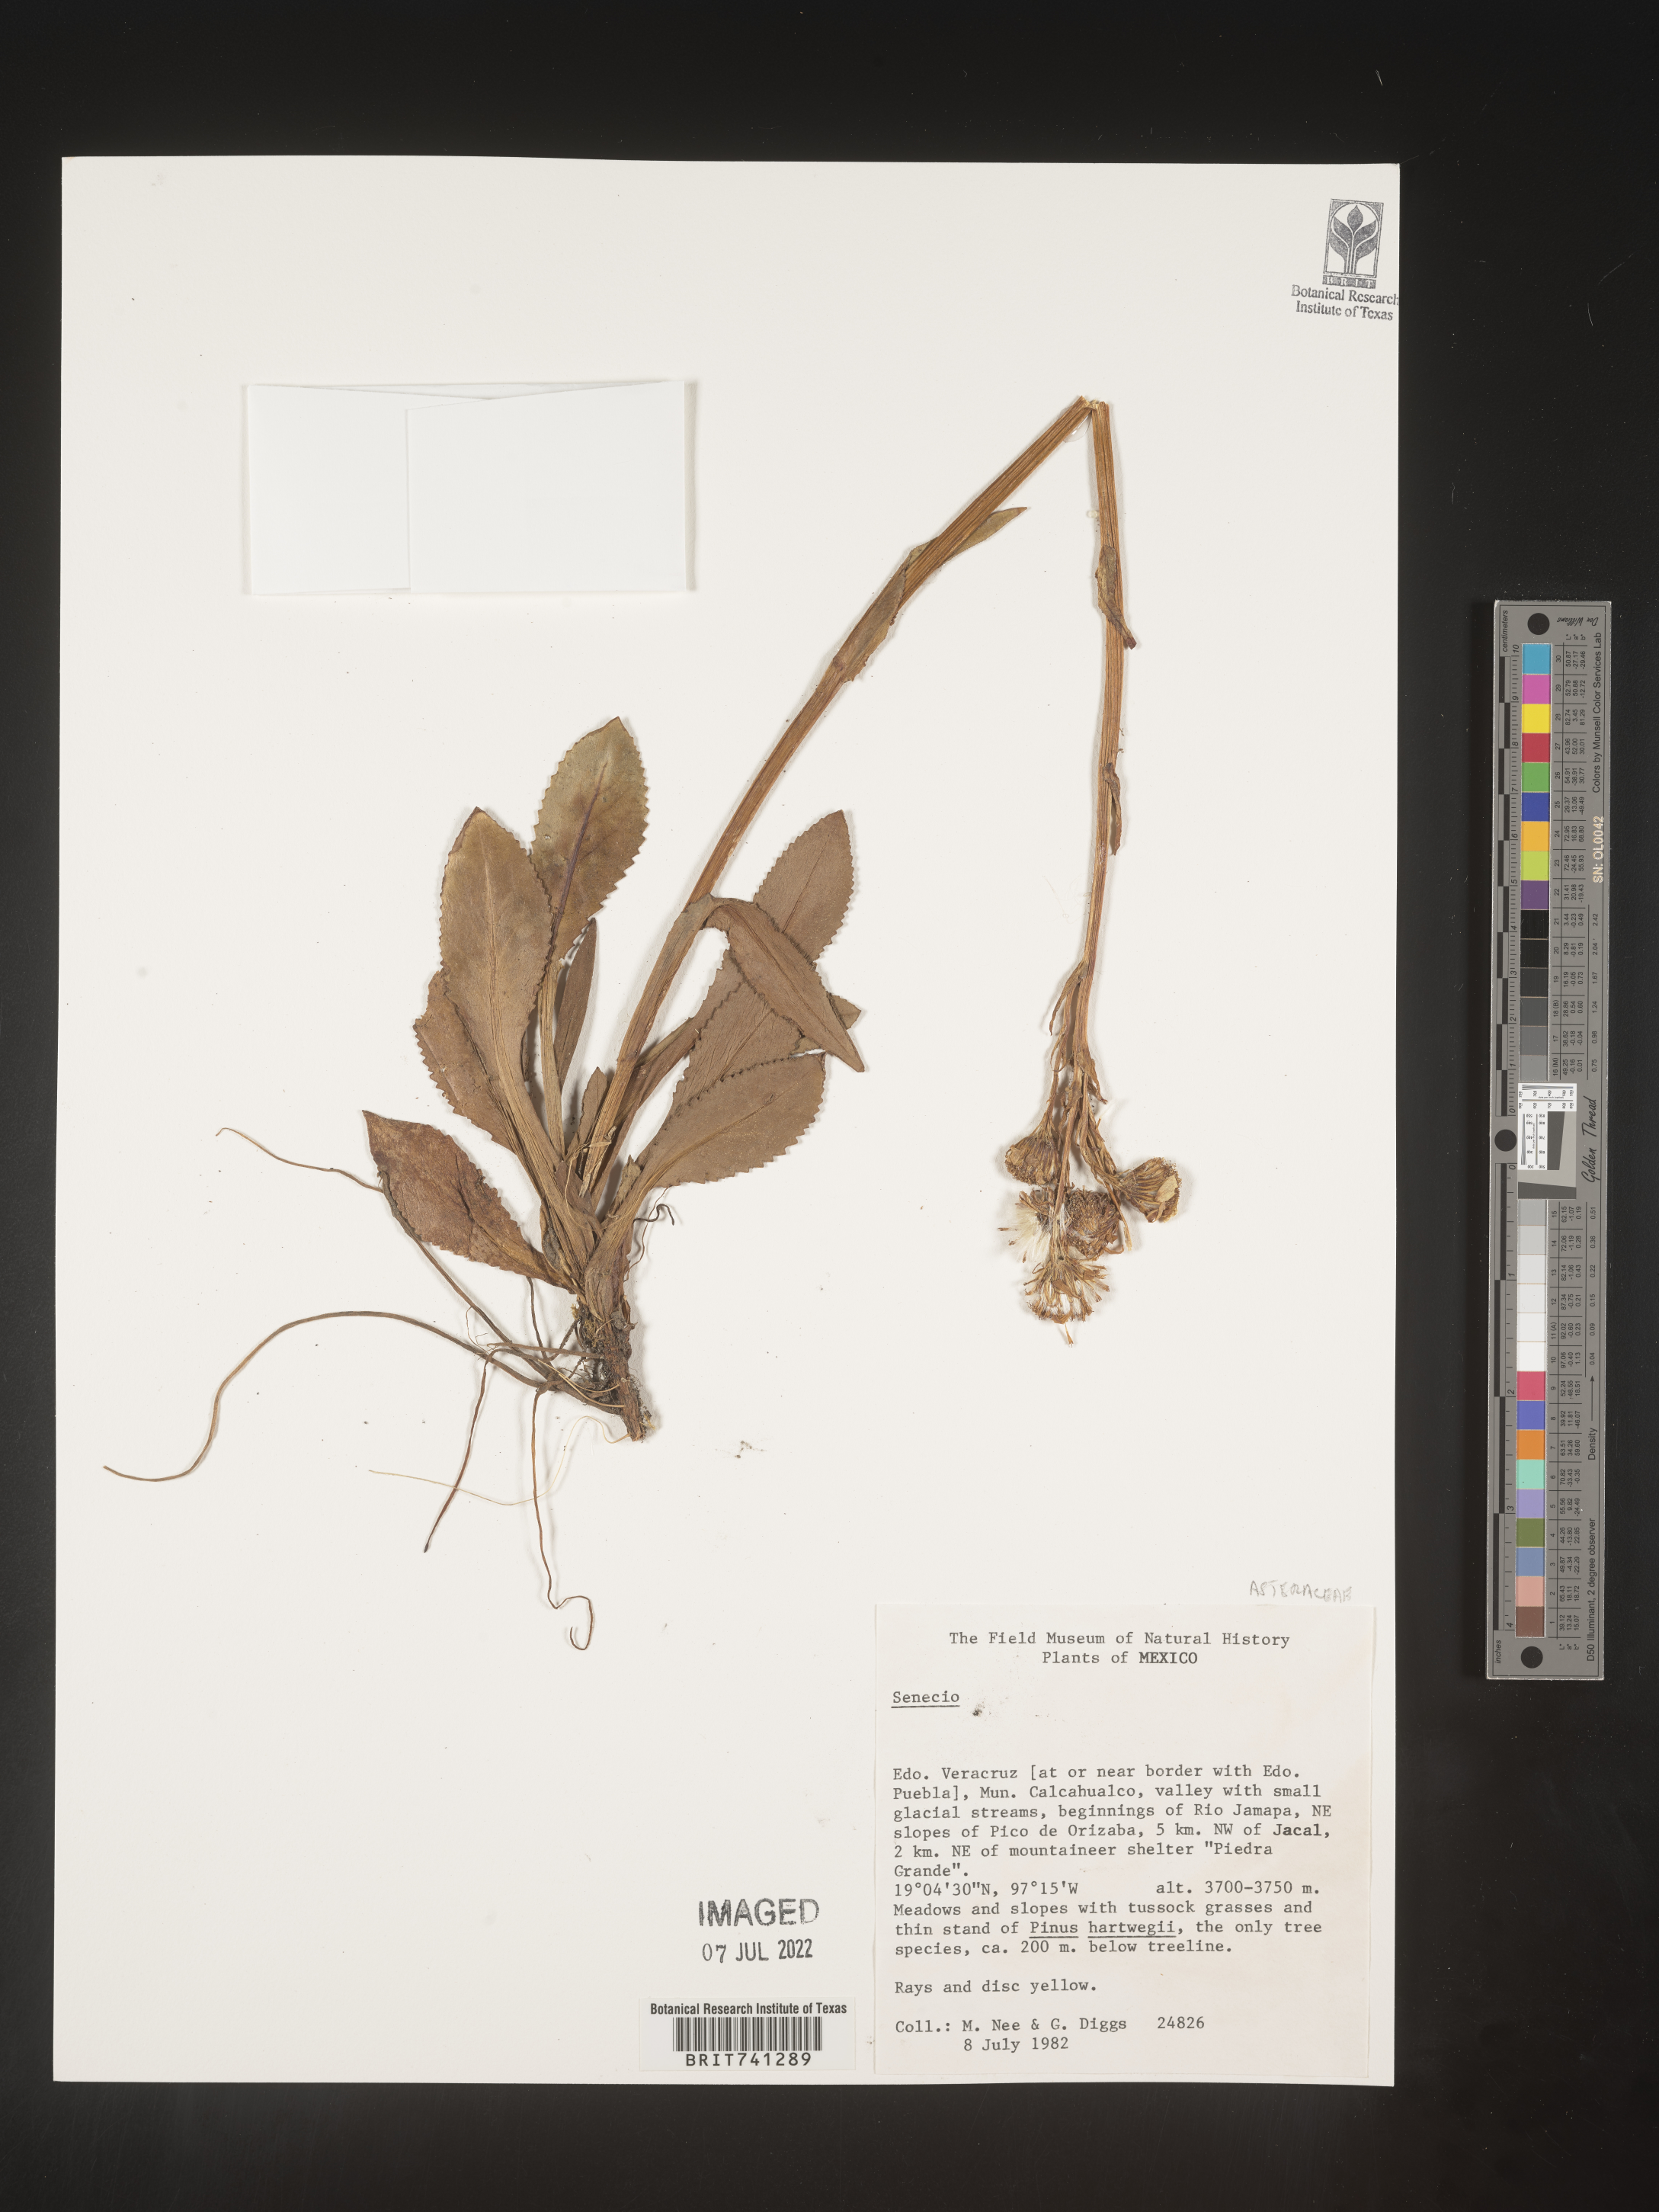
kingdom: Plantae
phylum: Tracheophyta
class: Magnoliopsida
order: Asterales
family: Asteraceae
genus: Senecio
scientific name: Senecio
